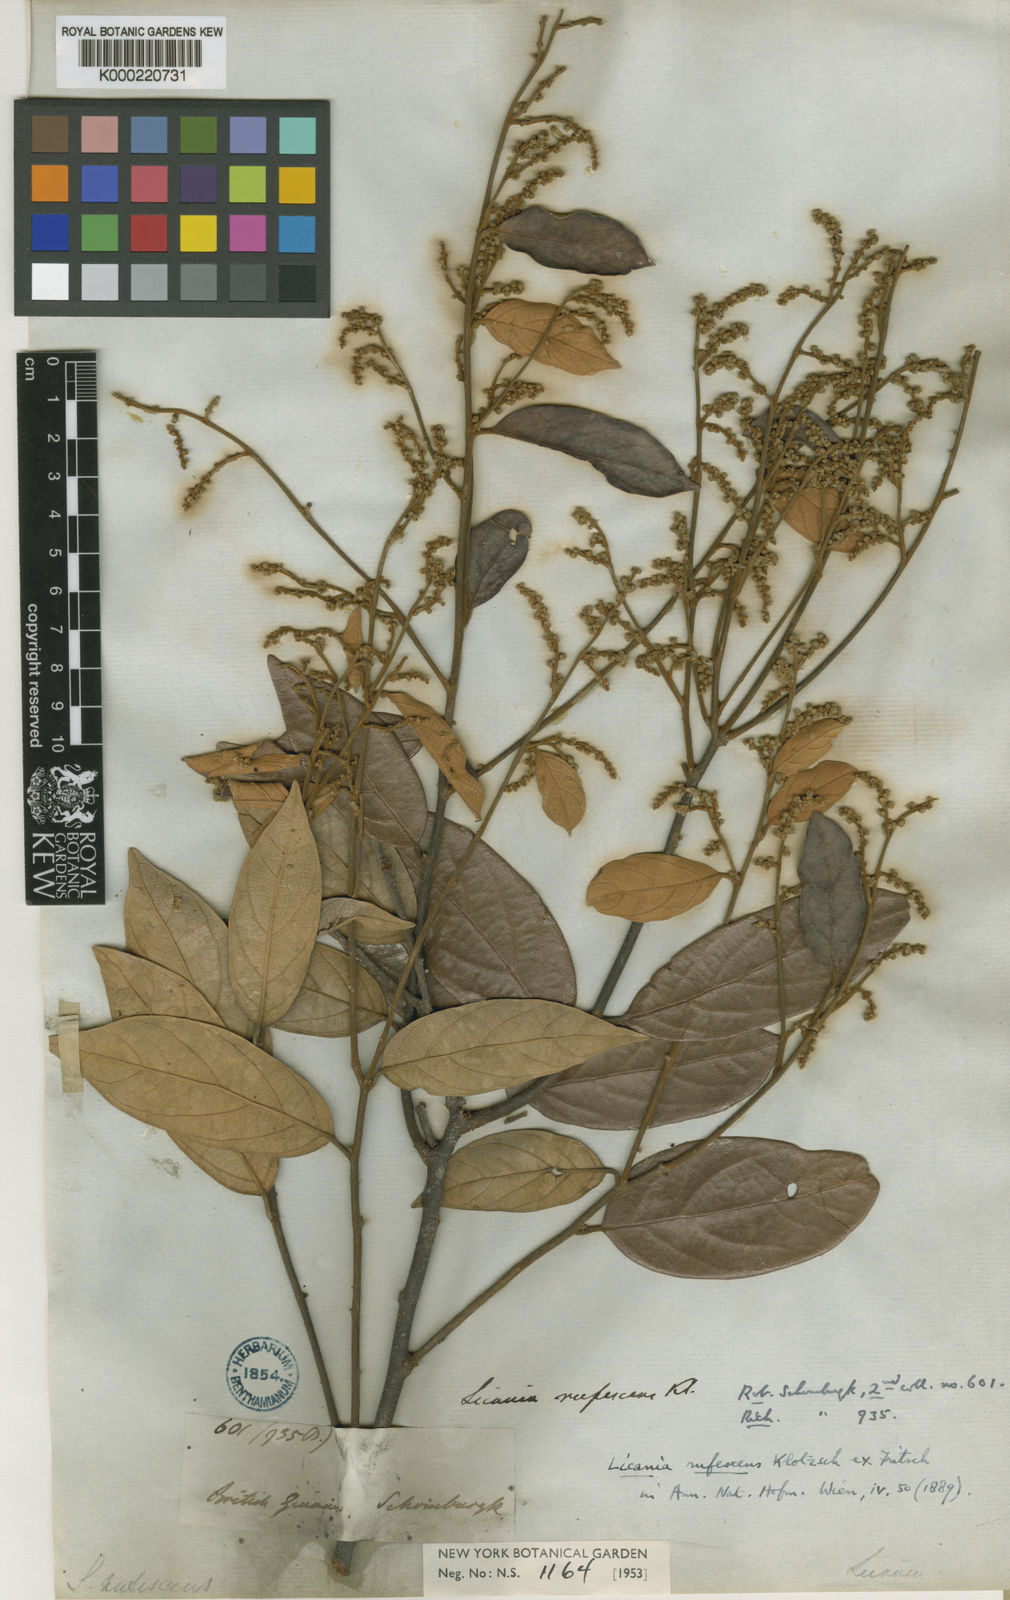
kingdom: Plantae
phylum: Tracheophyta
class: Magnoliopsida
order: Malpighiales
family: Chrysobalanaceae
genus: Licania
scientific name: Licania rufescens
